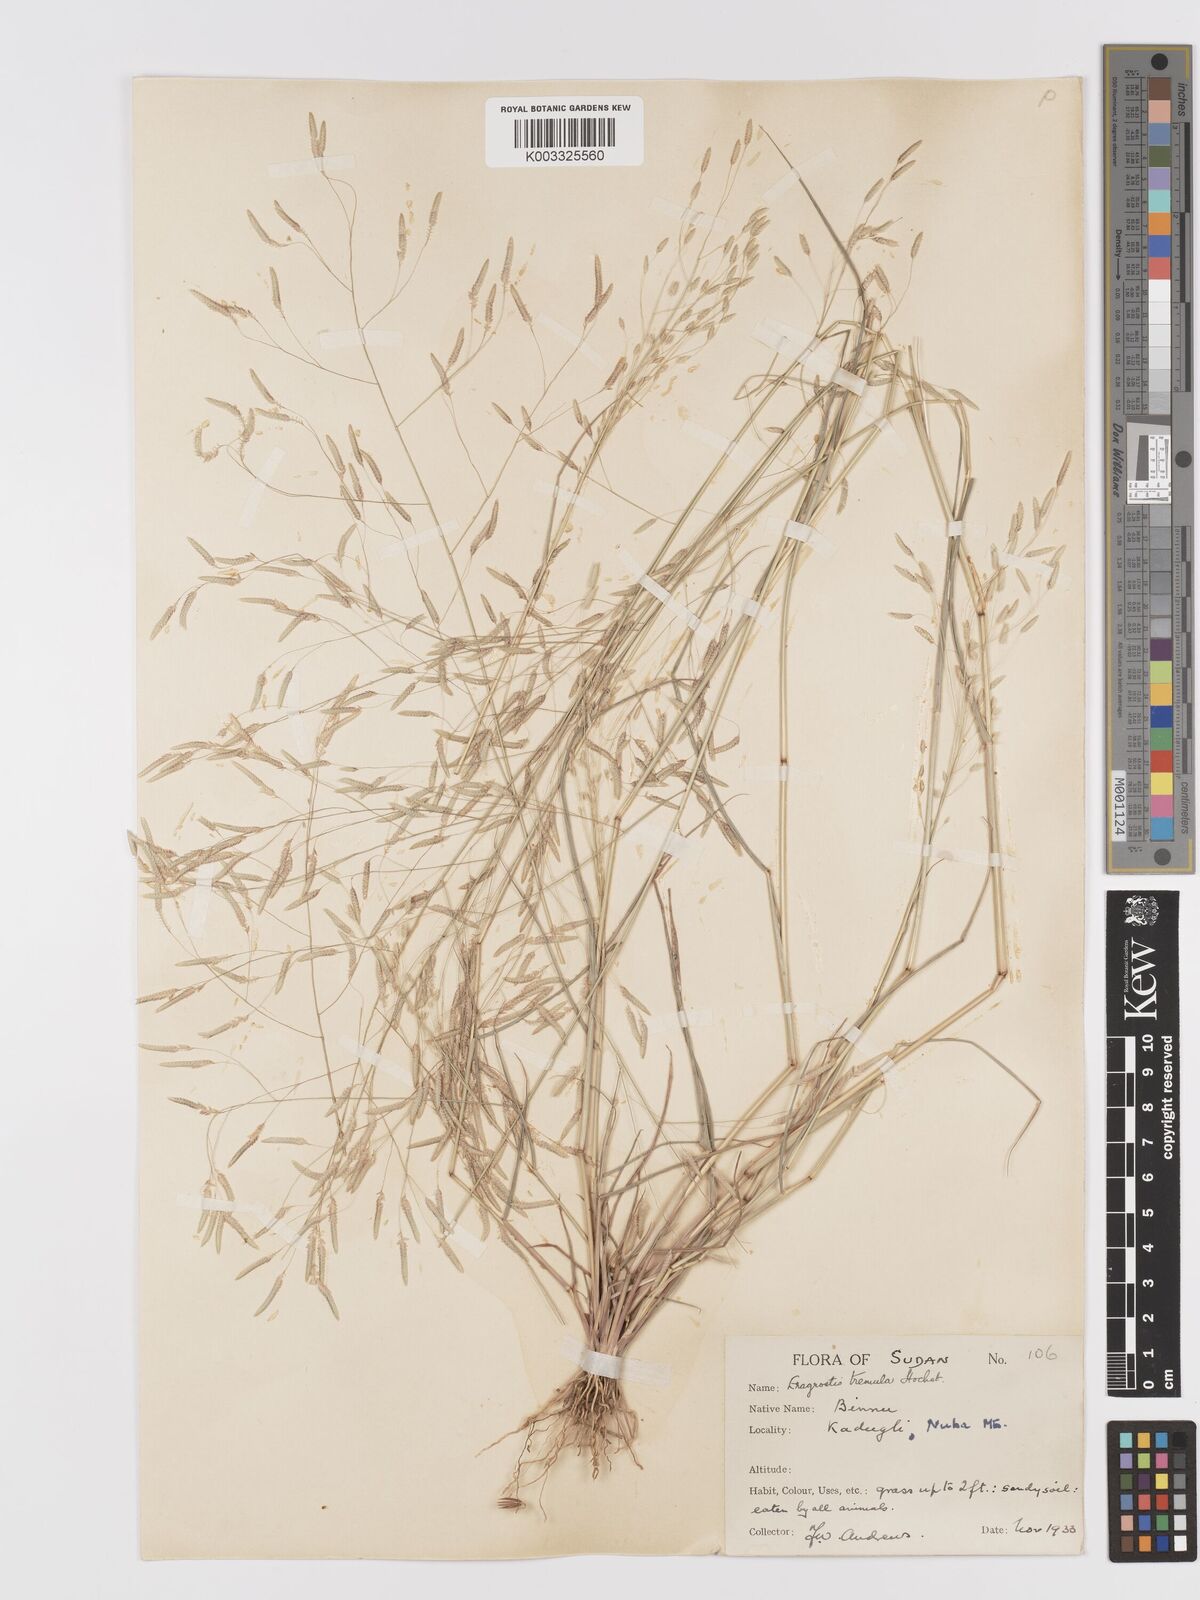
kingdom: Plantae
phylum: Tracheophyta
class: Liliopsida
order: Poales
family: Poaceae
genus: Eragrostis
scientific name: Eragrostis tremula
